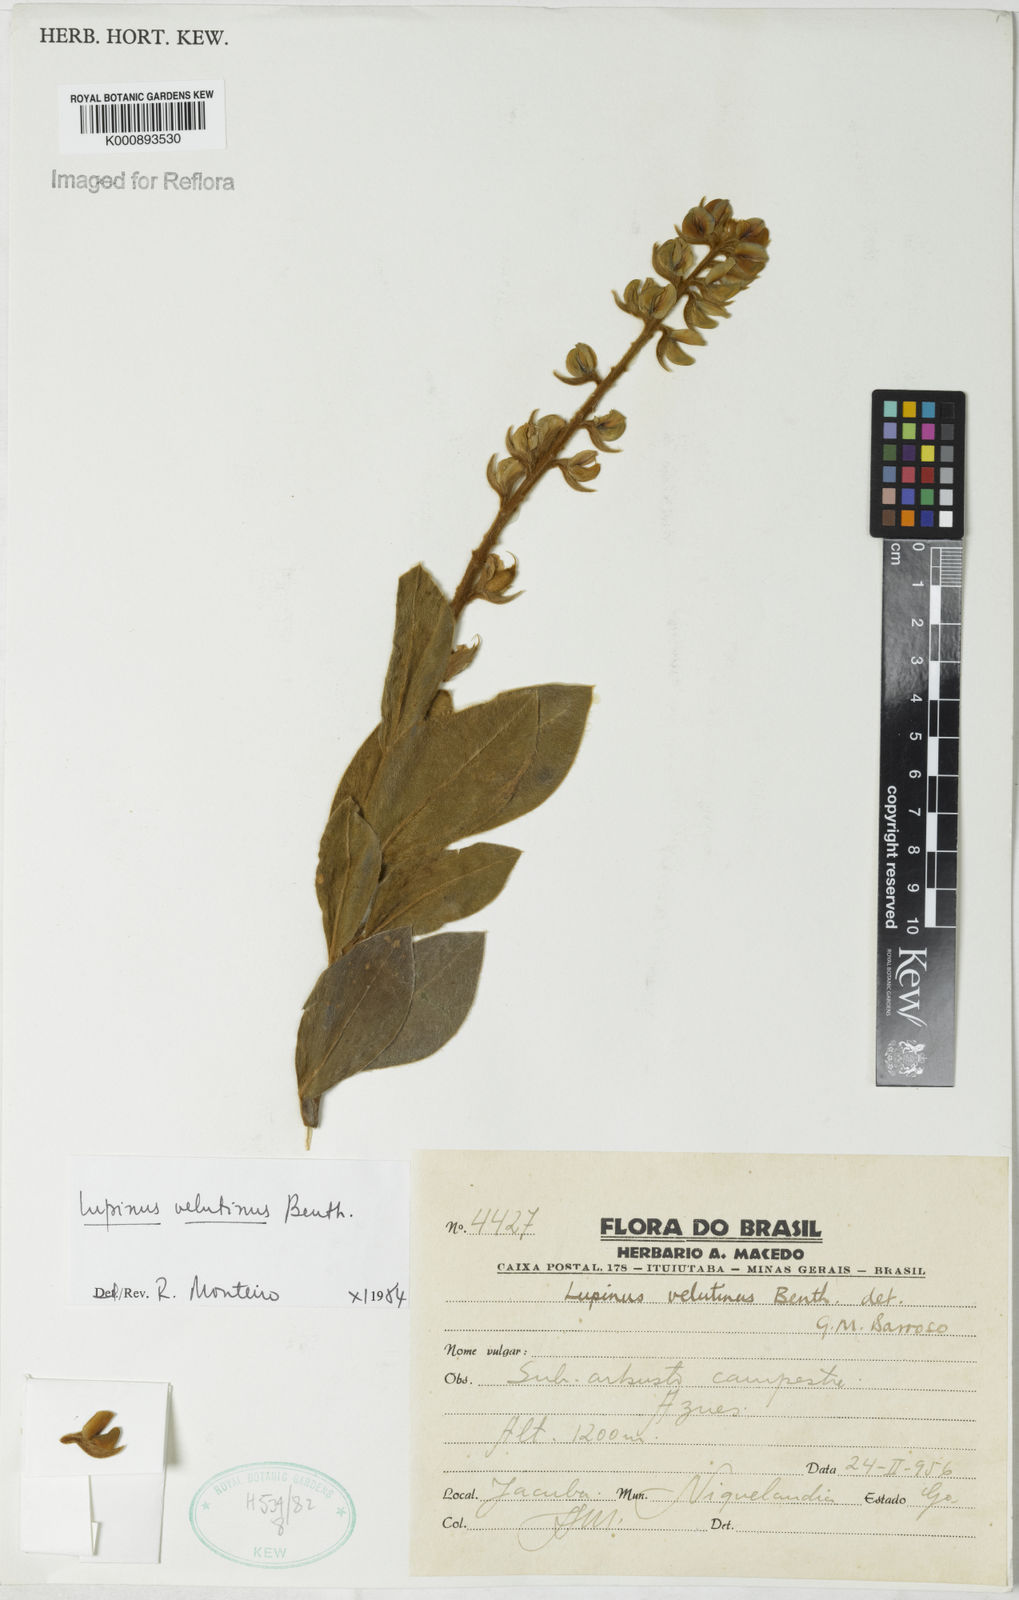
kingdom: Plantae
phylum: Tracheophyta
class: Magnoliopsida
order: Fabales
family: Fabaceae
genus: Lupinus
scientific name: Lupinus velutinus
